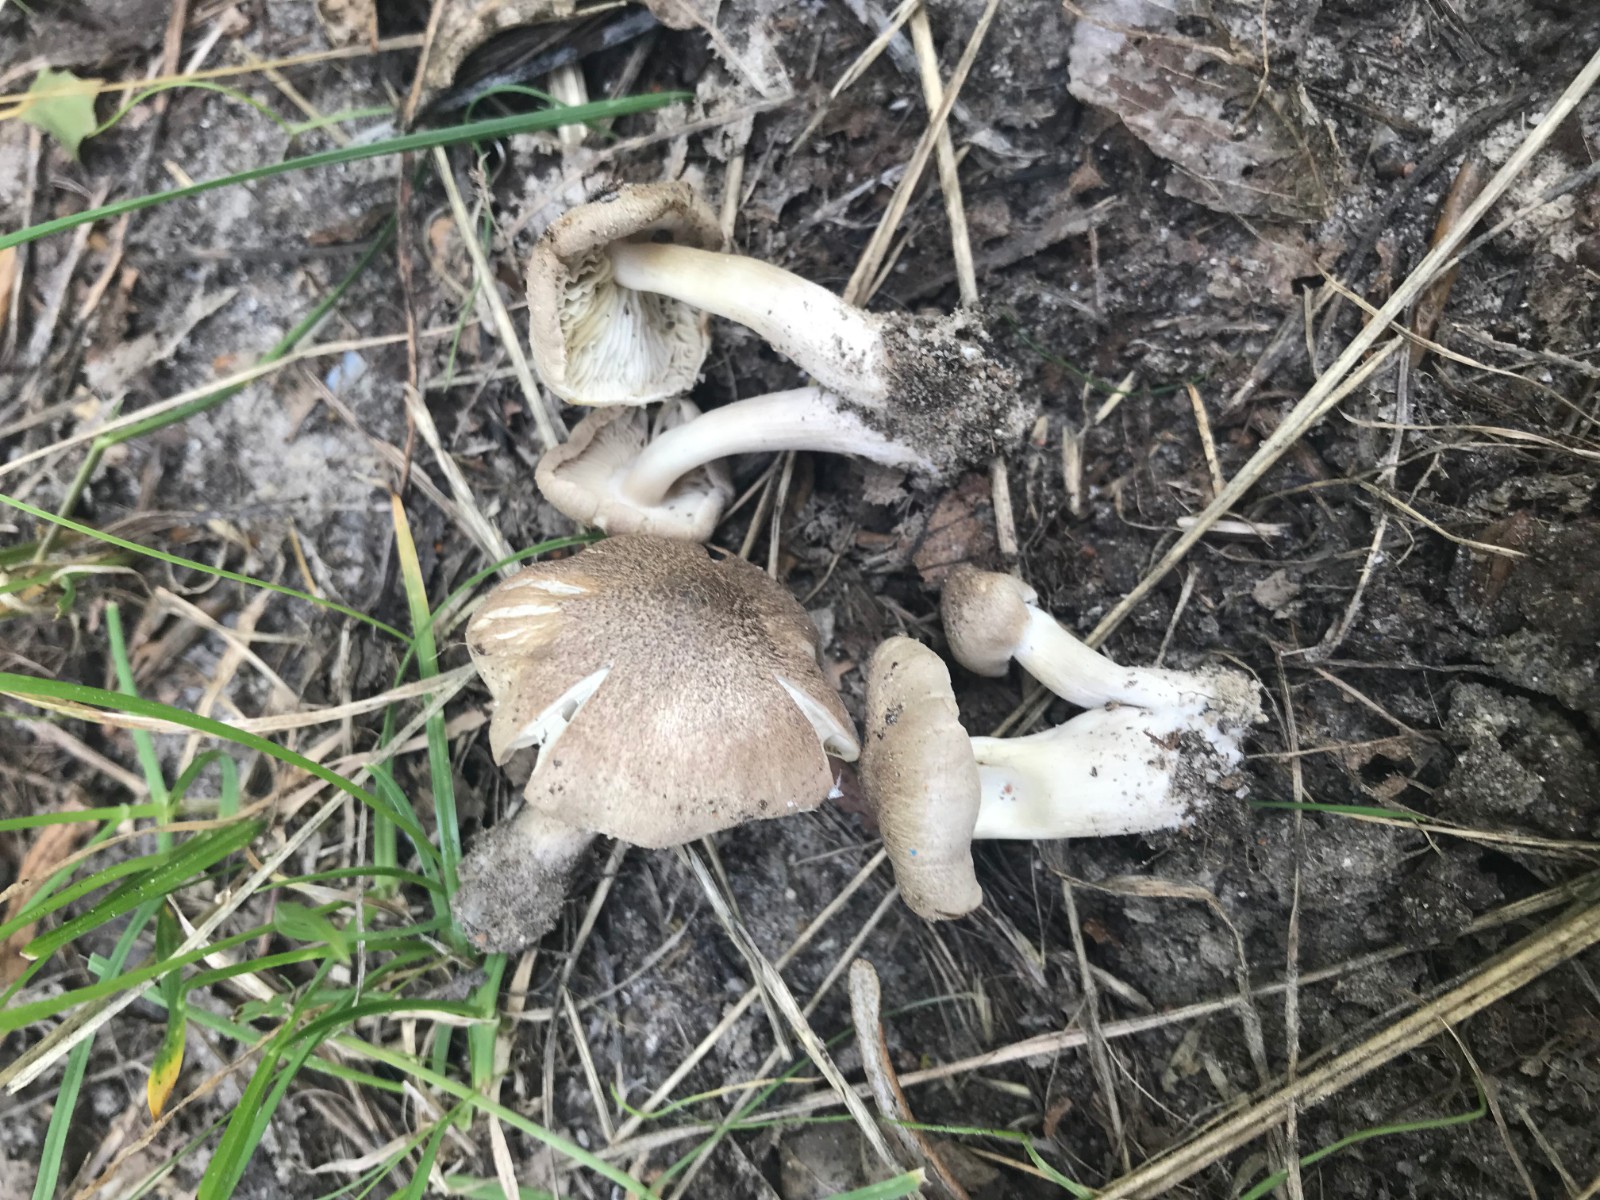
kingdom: Fungi
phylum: Basidiomycota
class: Agaricomycetes
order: Agaricales
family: Tricholomataceae
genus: Tricholoma
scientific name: Tricholoma scalpturatum
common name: gulplettet ridderhat
